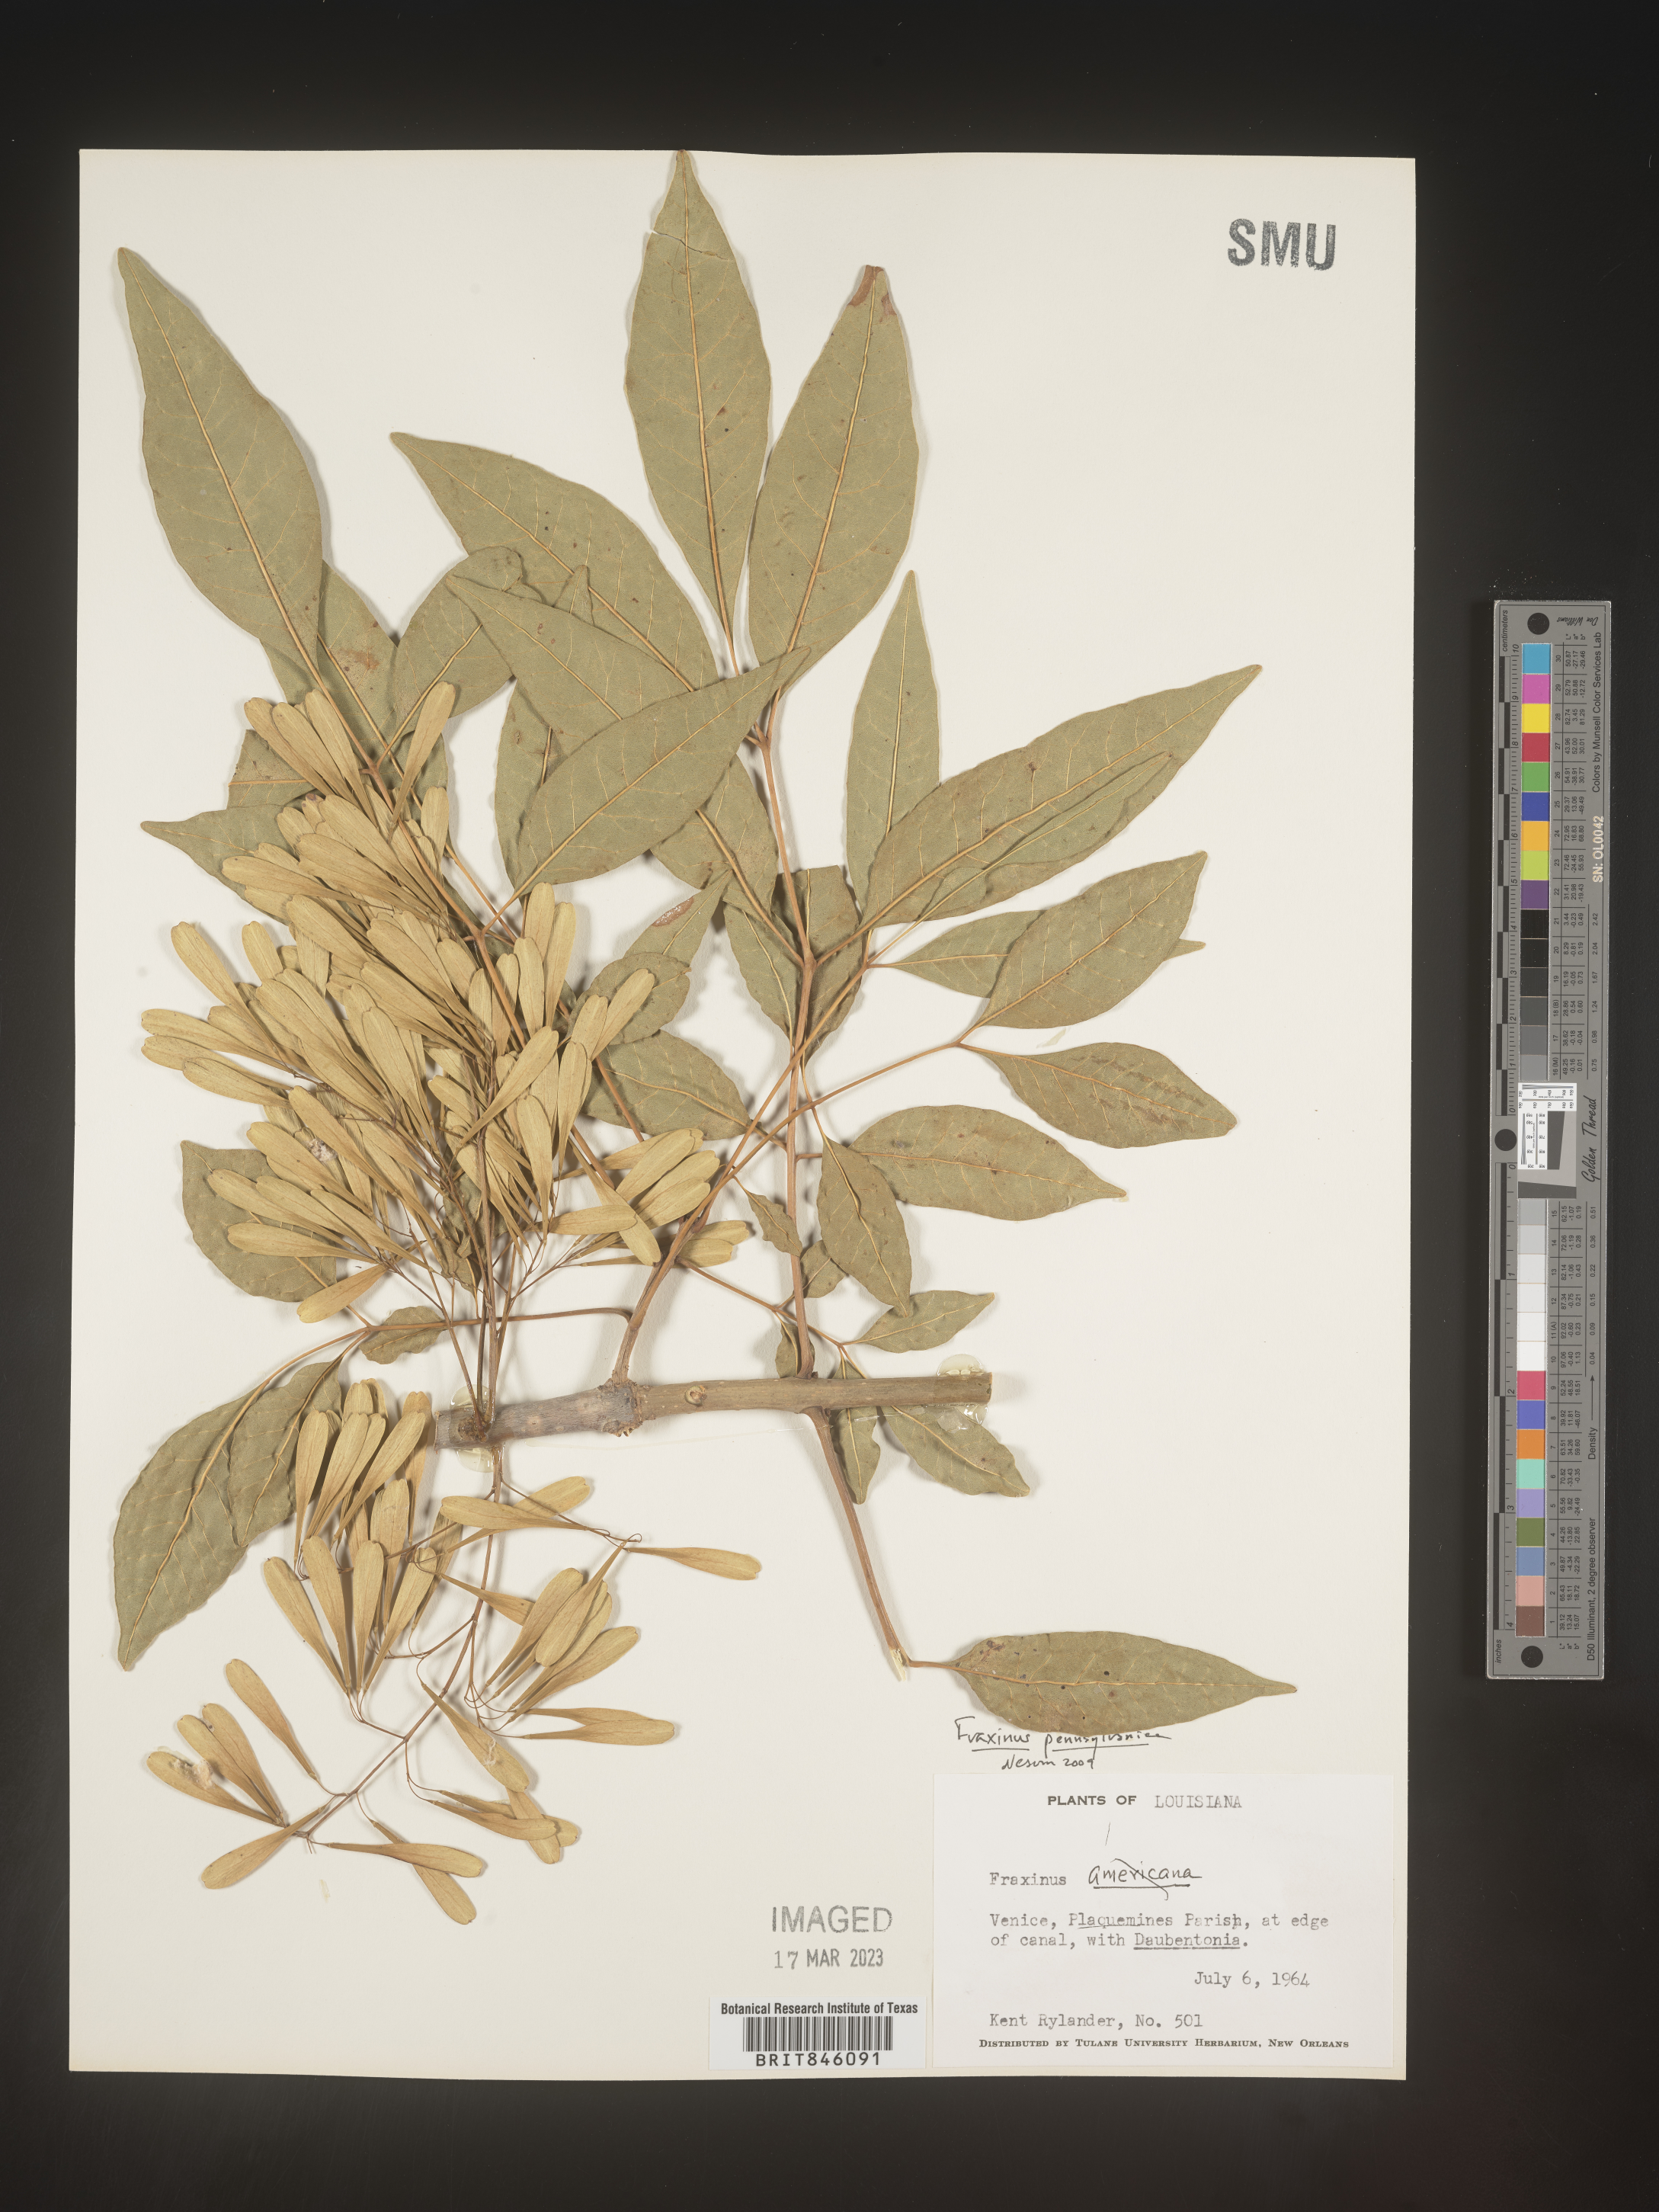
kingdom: Plantae
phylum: Tracheophyta
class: Magnoliopsida
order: Lamiales
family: Oleaceae
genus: Fraxinus
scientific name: Fraxinus pennsylvanica
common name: Green ash
